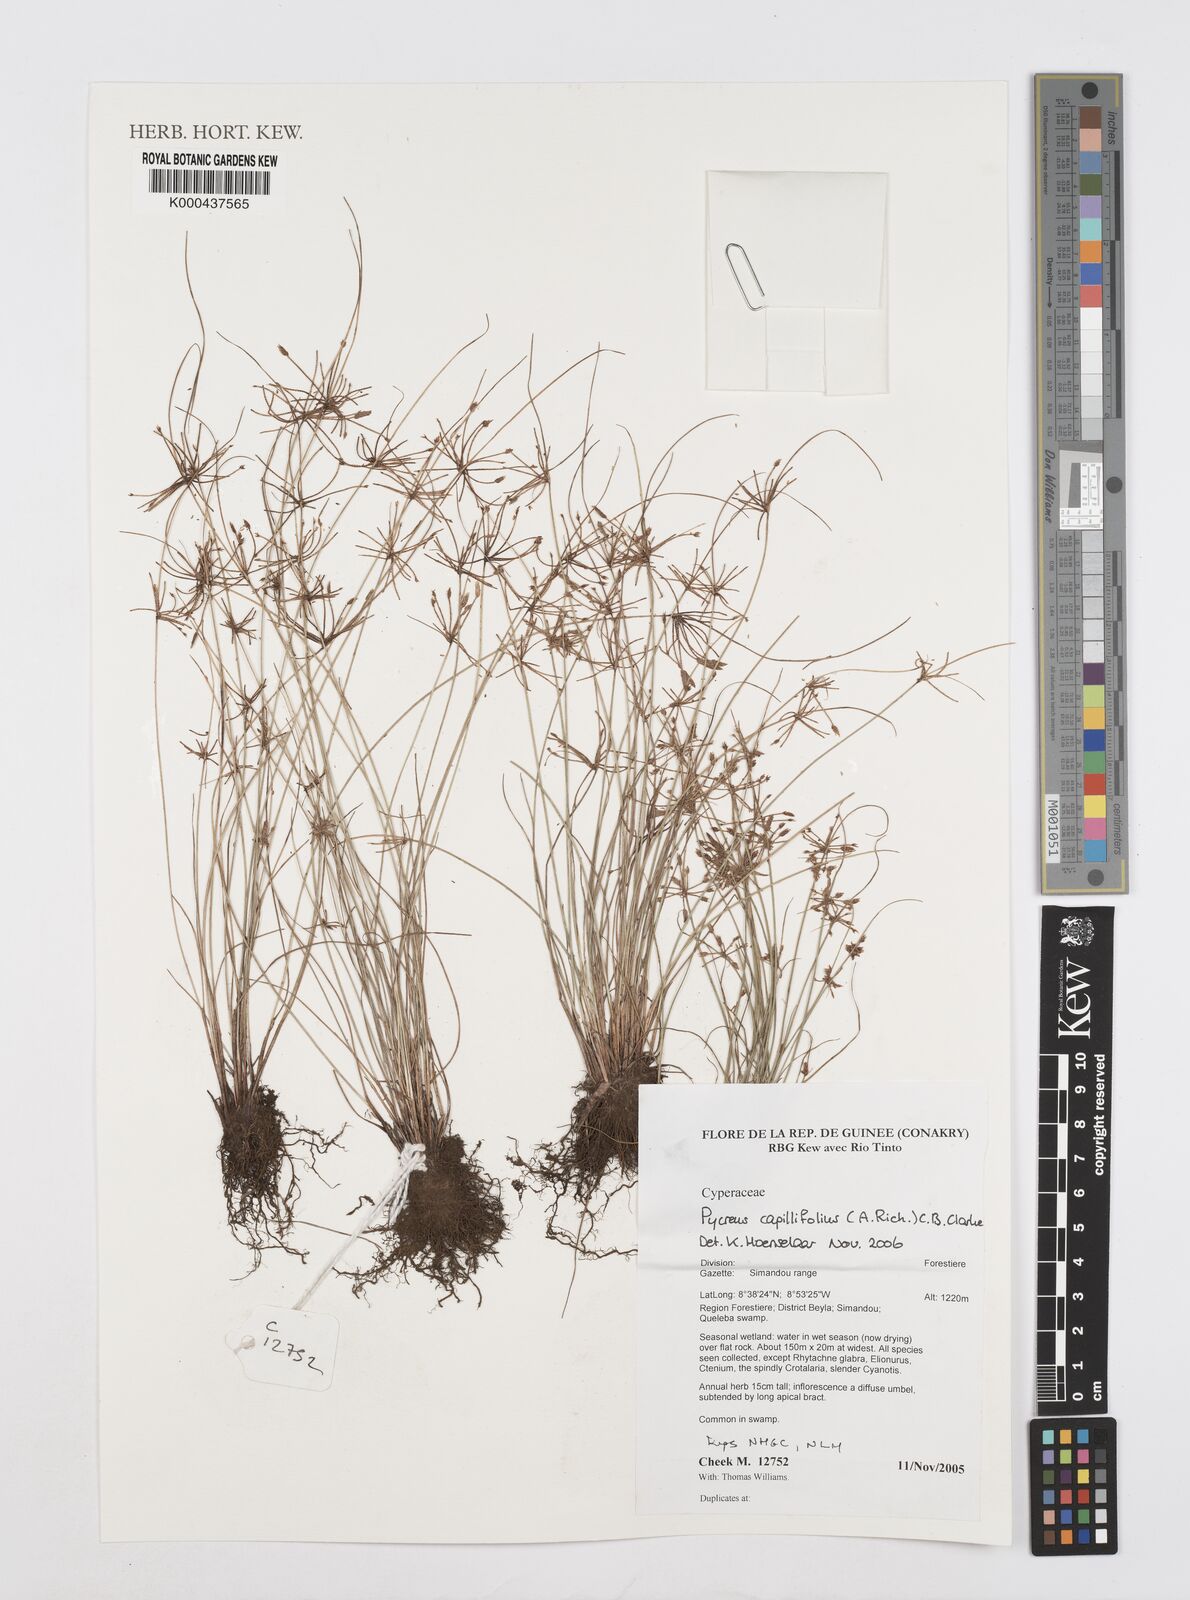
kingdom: Plantae
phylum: Tracheophyta
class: Liliopsida
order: Poales
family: Cyperaceae
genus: Cyperus
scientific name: Cyperus capillifolius
